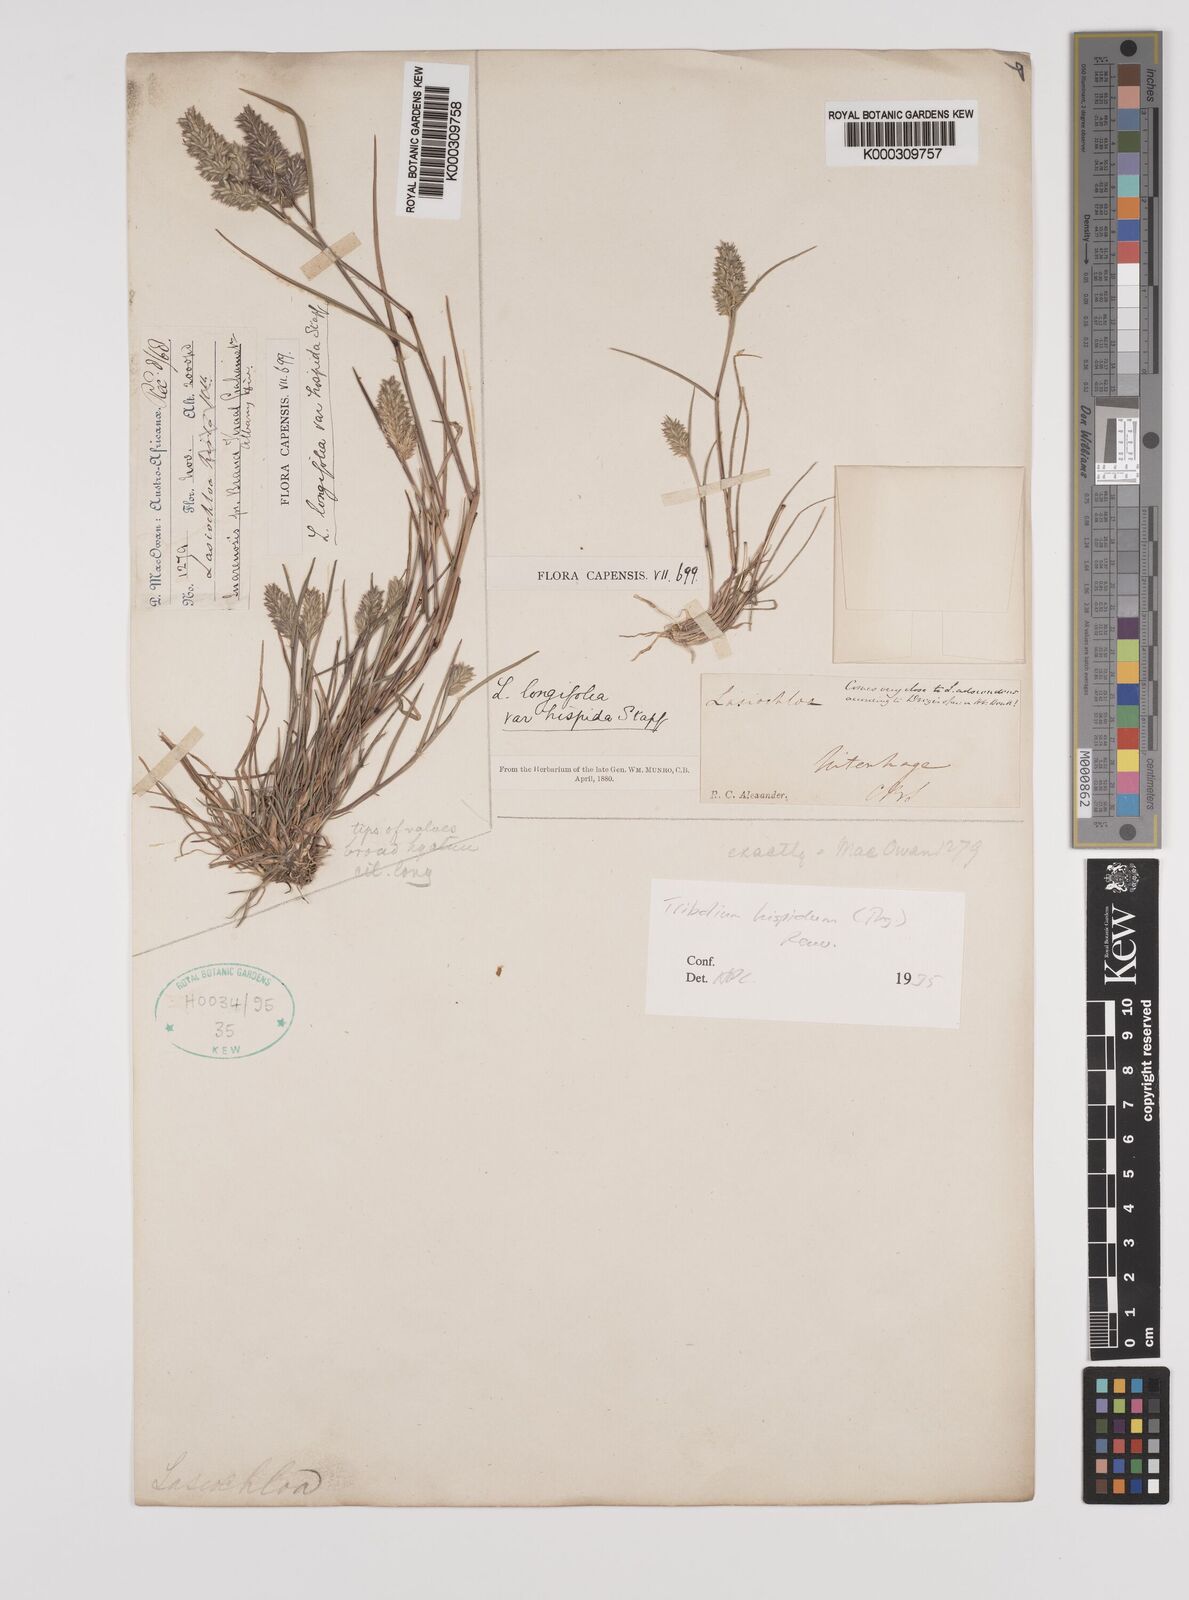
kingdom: Plantae
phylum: Tracheophyta
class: Liliopsida
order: Poales
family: Poaceae
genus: Tribolium
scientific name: Tribolium hispidum
